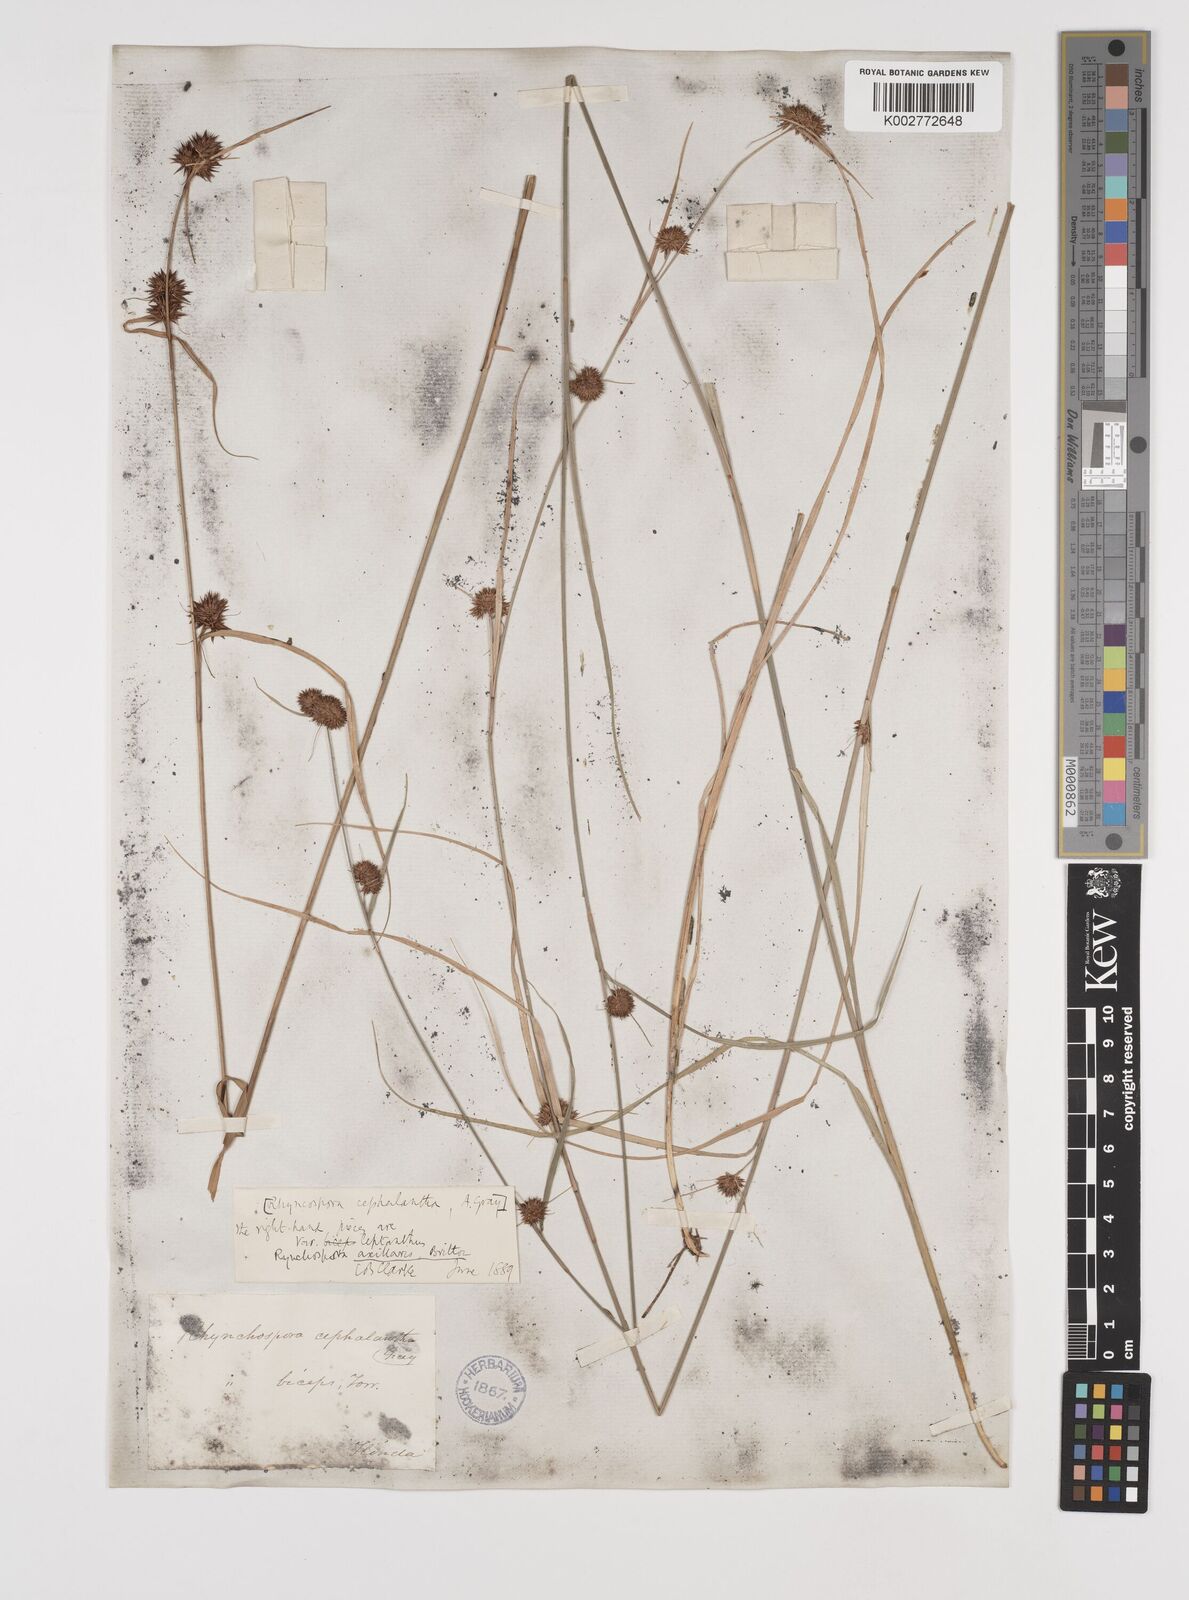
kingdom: Plantae
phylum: Tracheophyta
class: Liliopsida
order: Poales
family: Cyperaceae
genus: Rhynchospora
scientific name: Rhynchospora glomerata
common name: Cluster beak sedge
